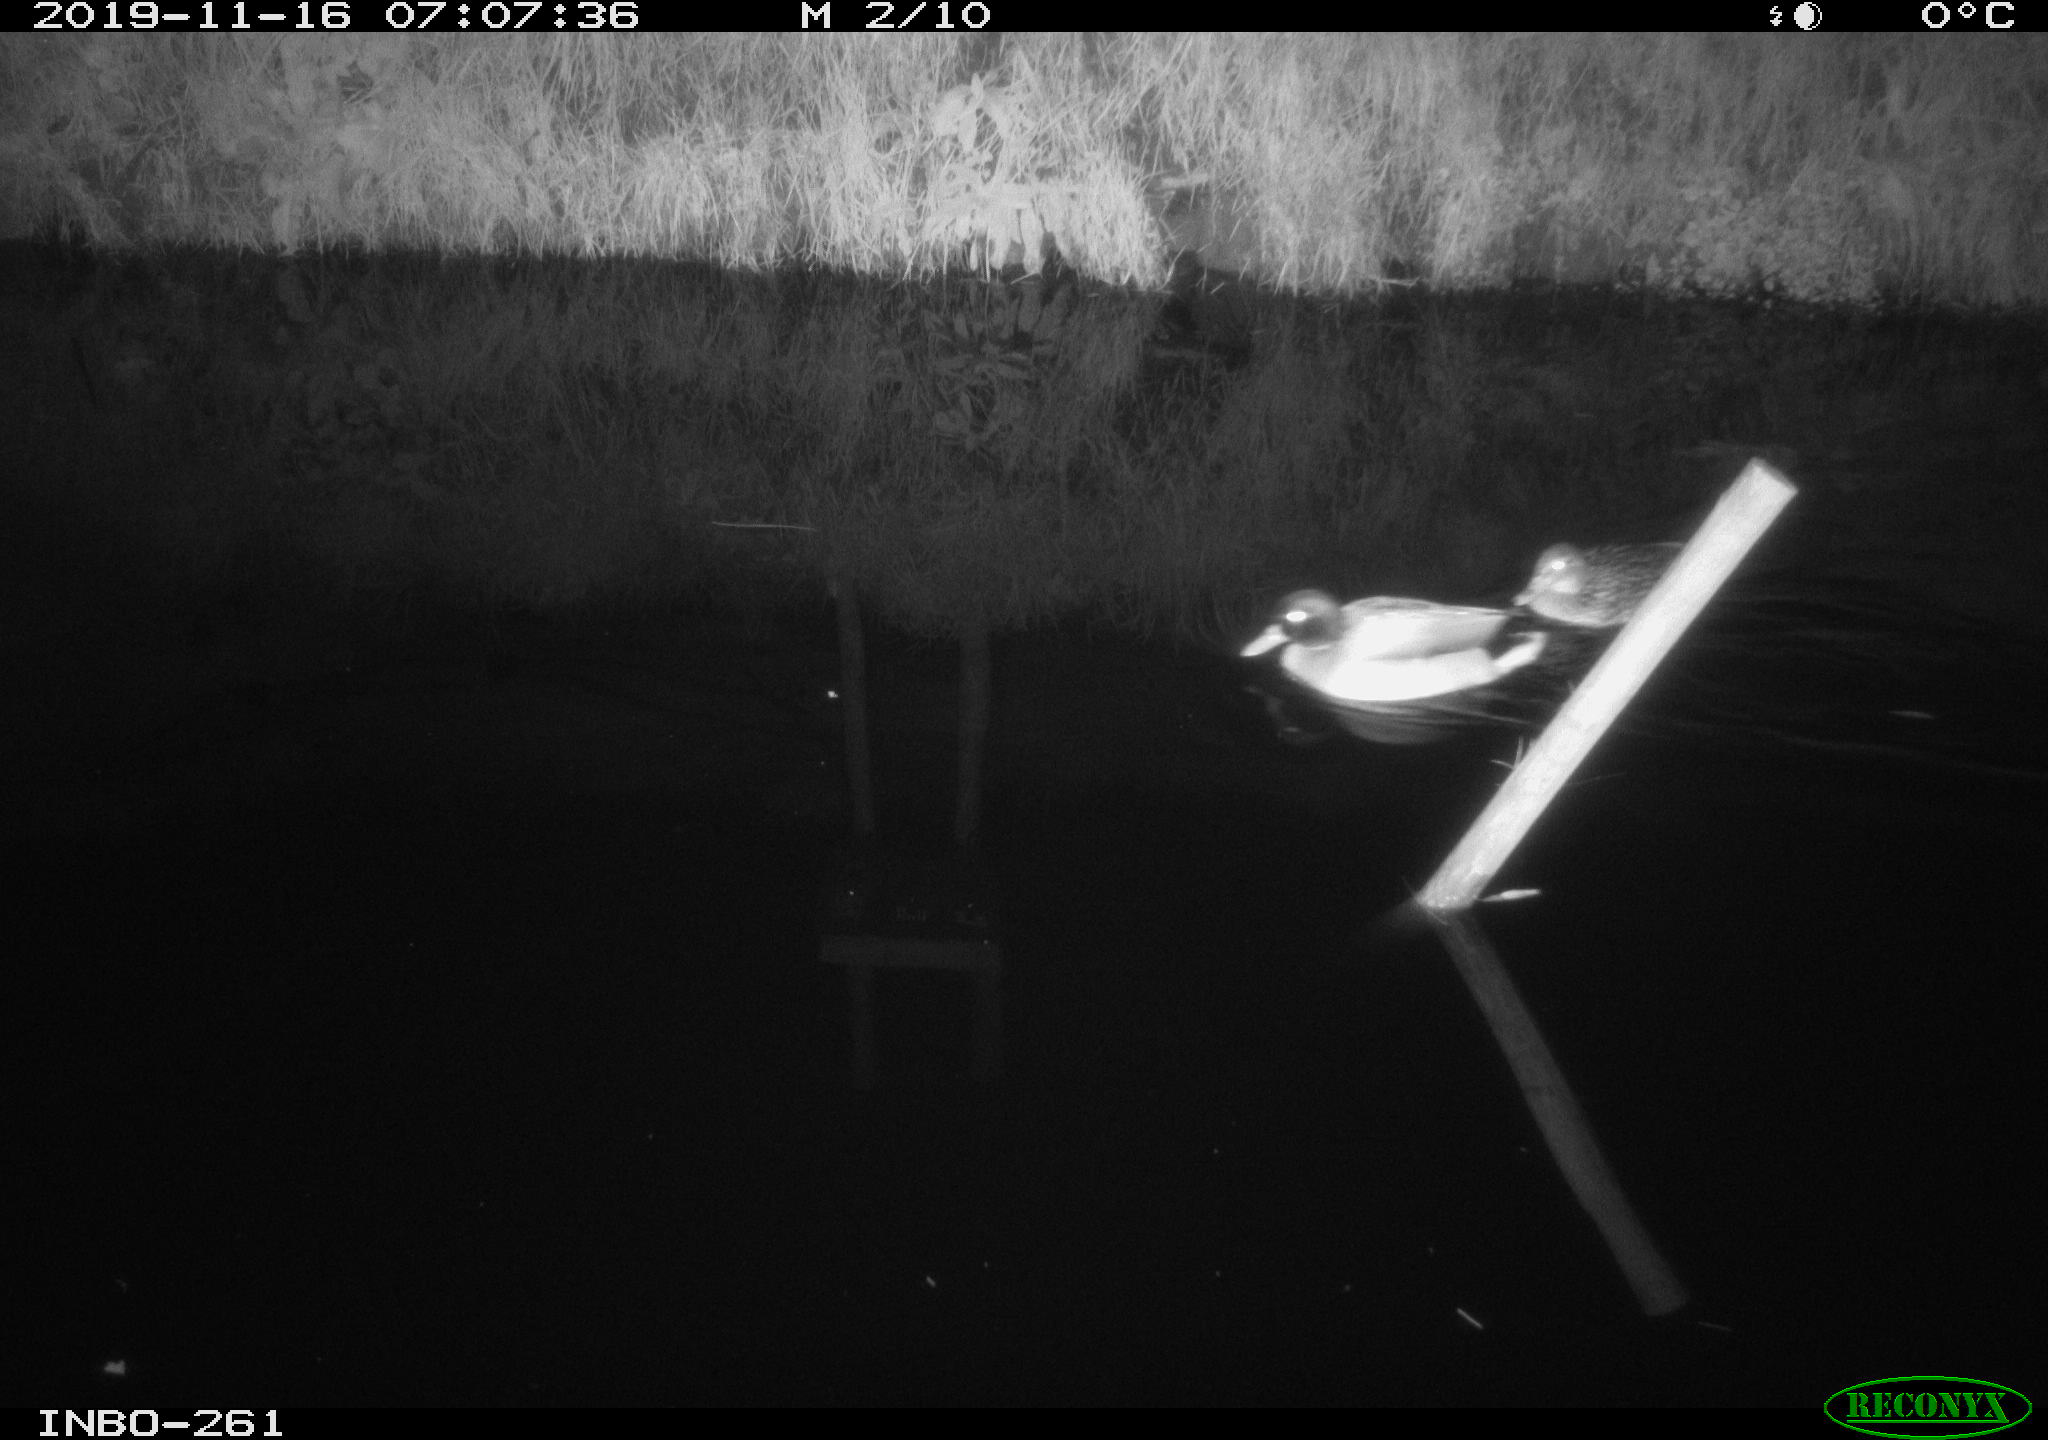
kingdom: Animalia
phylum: Chordata
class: Aves
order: Anseriformes
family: Anatidae
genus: Anas
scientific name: Anas platyrhynchos
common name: Mallard
